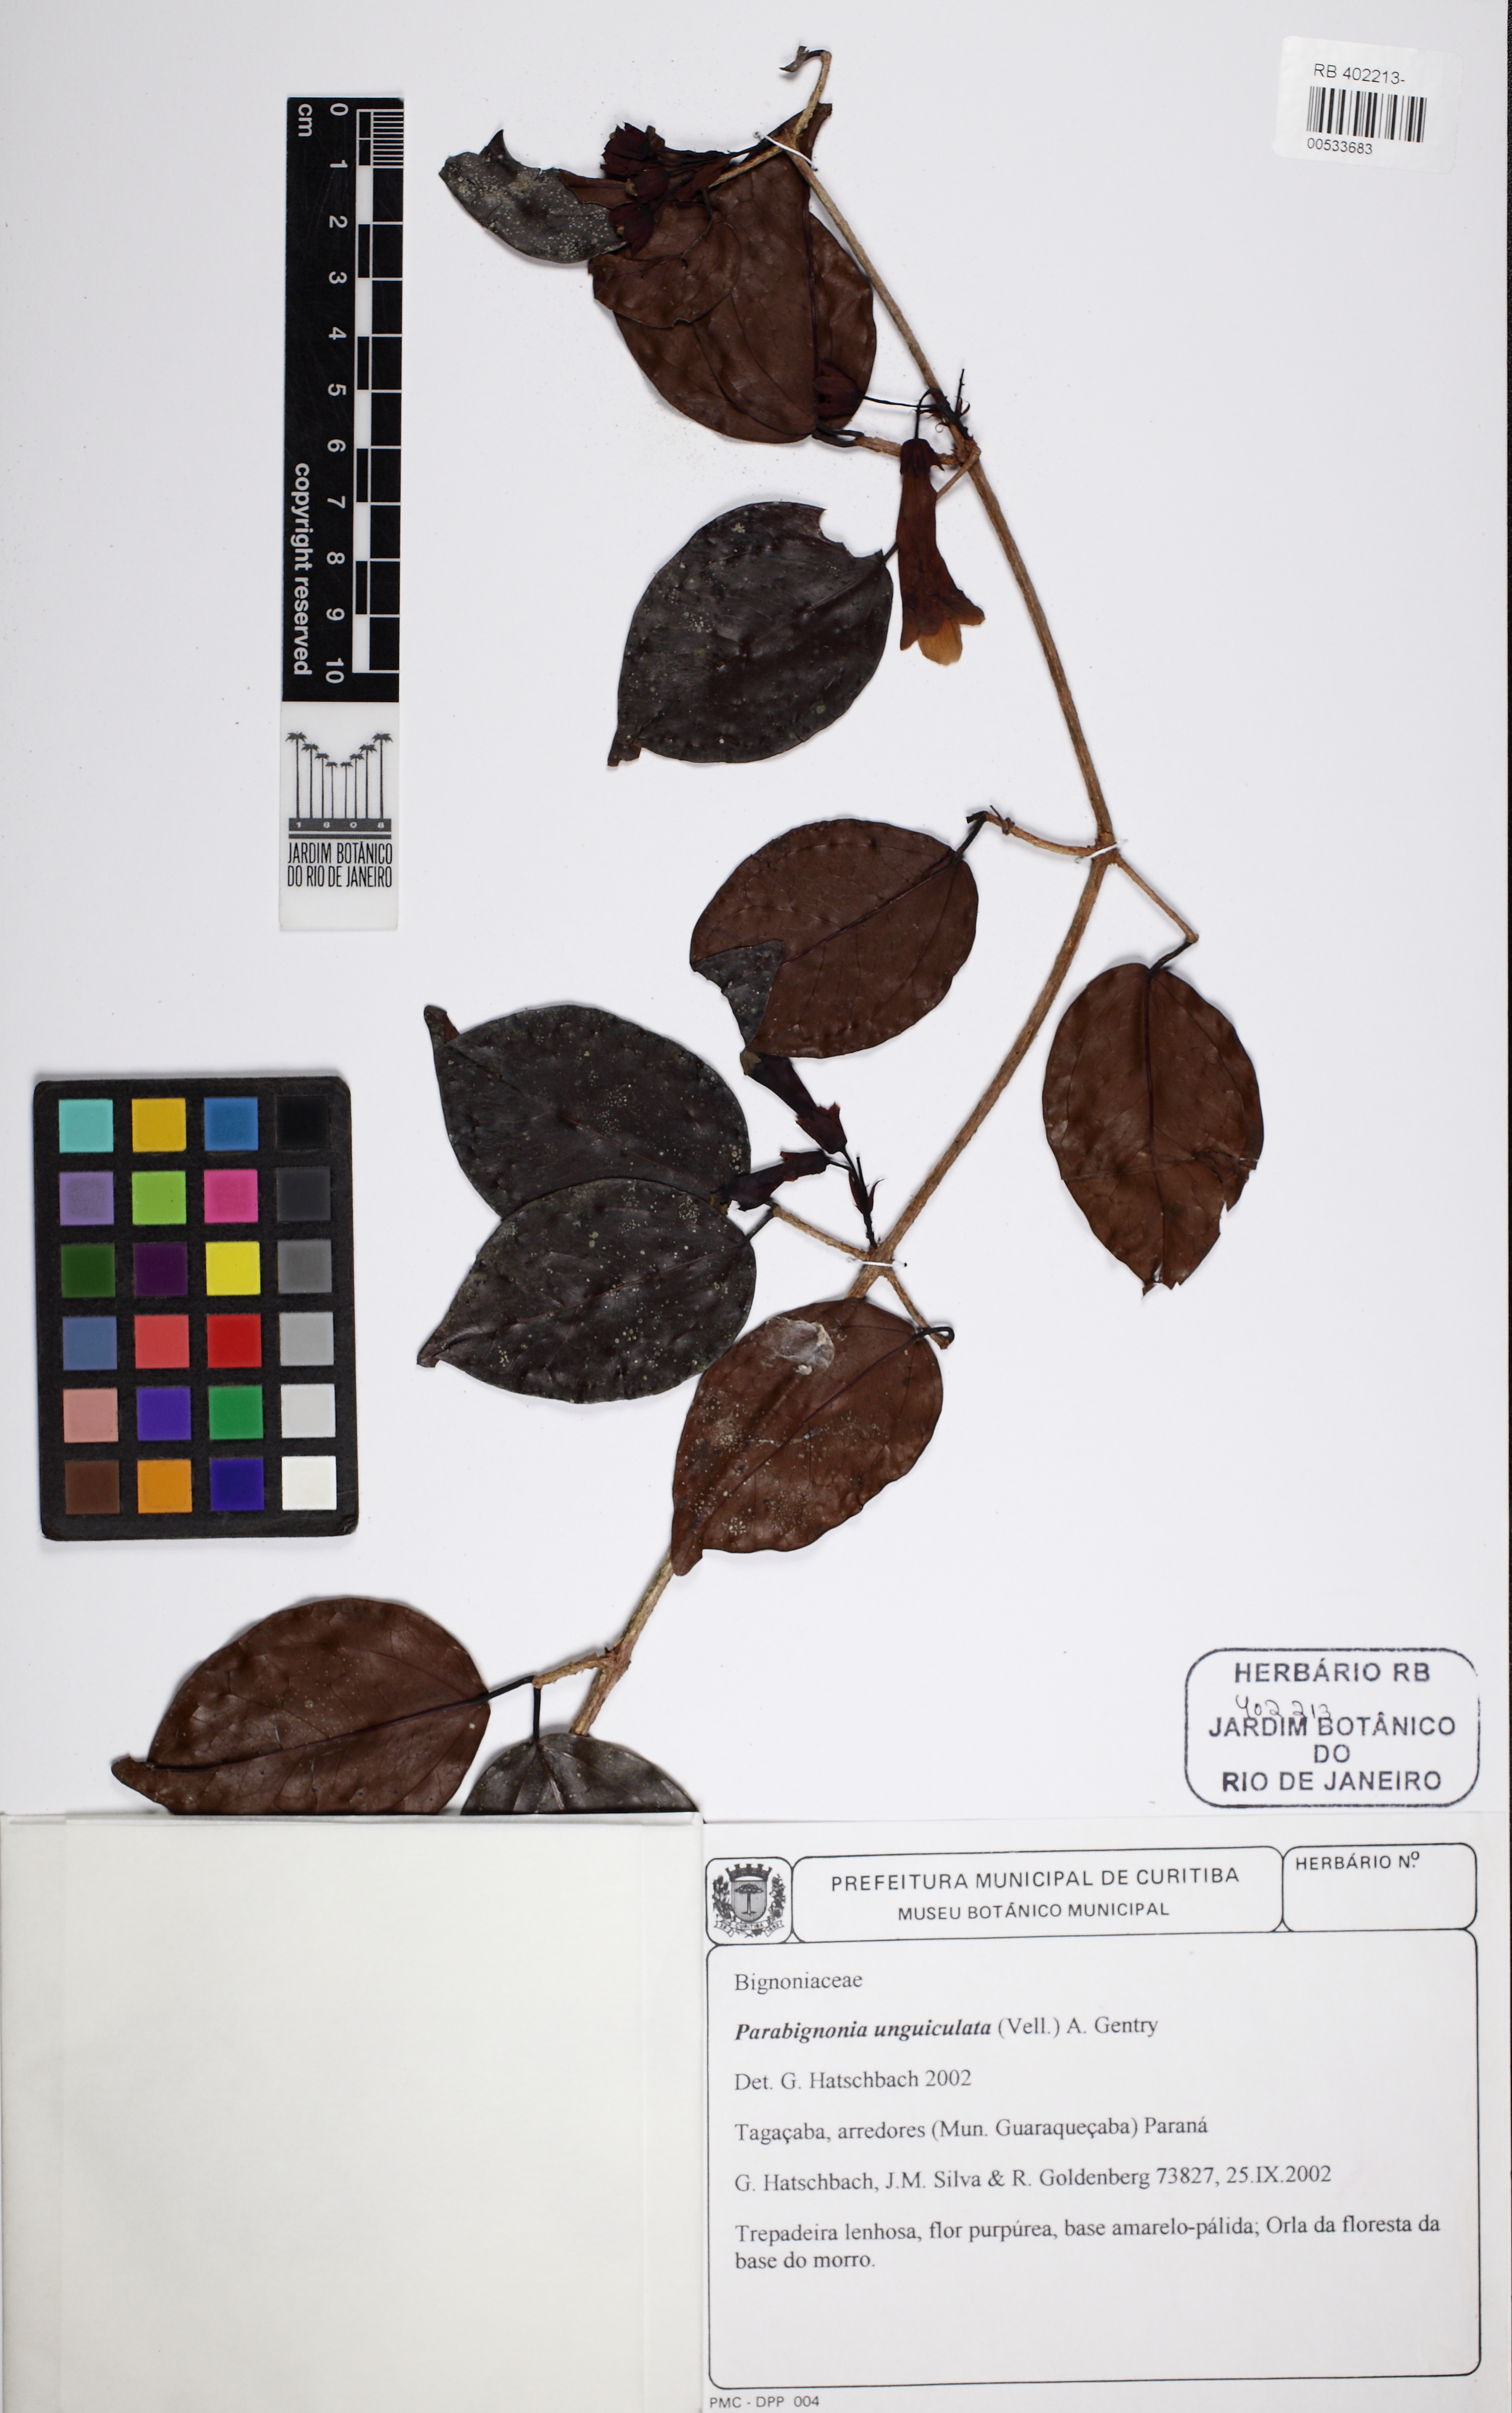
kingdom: Plantae
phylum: Tracheophyta
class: Magnoliopsida
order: Lamiales
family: Bignoniaceae
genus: Dolichandra
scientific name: Dolichandra unguiculata
